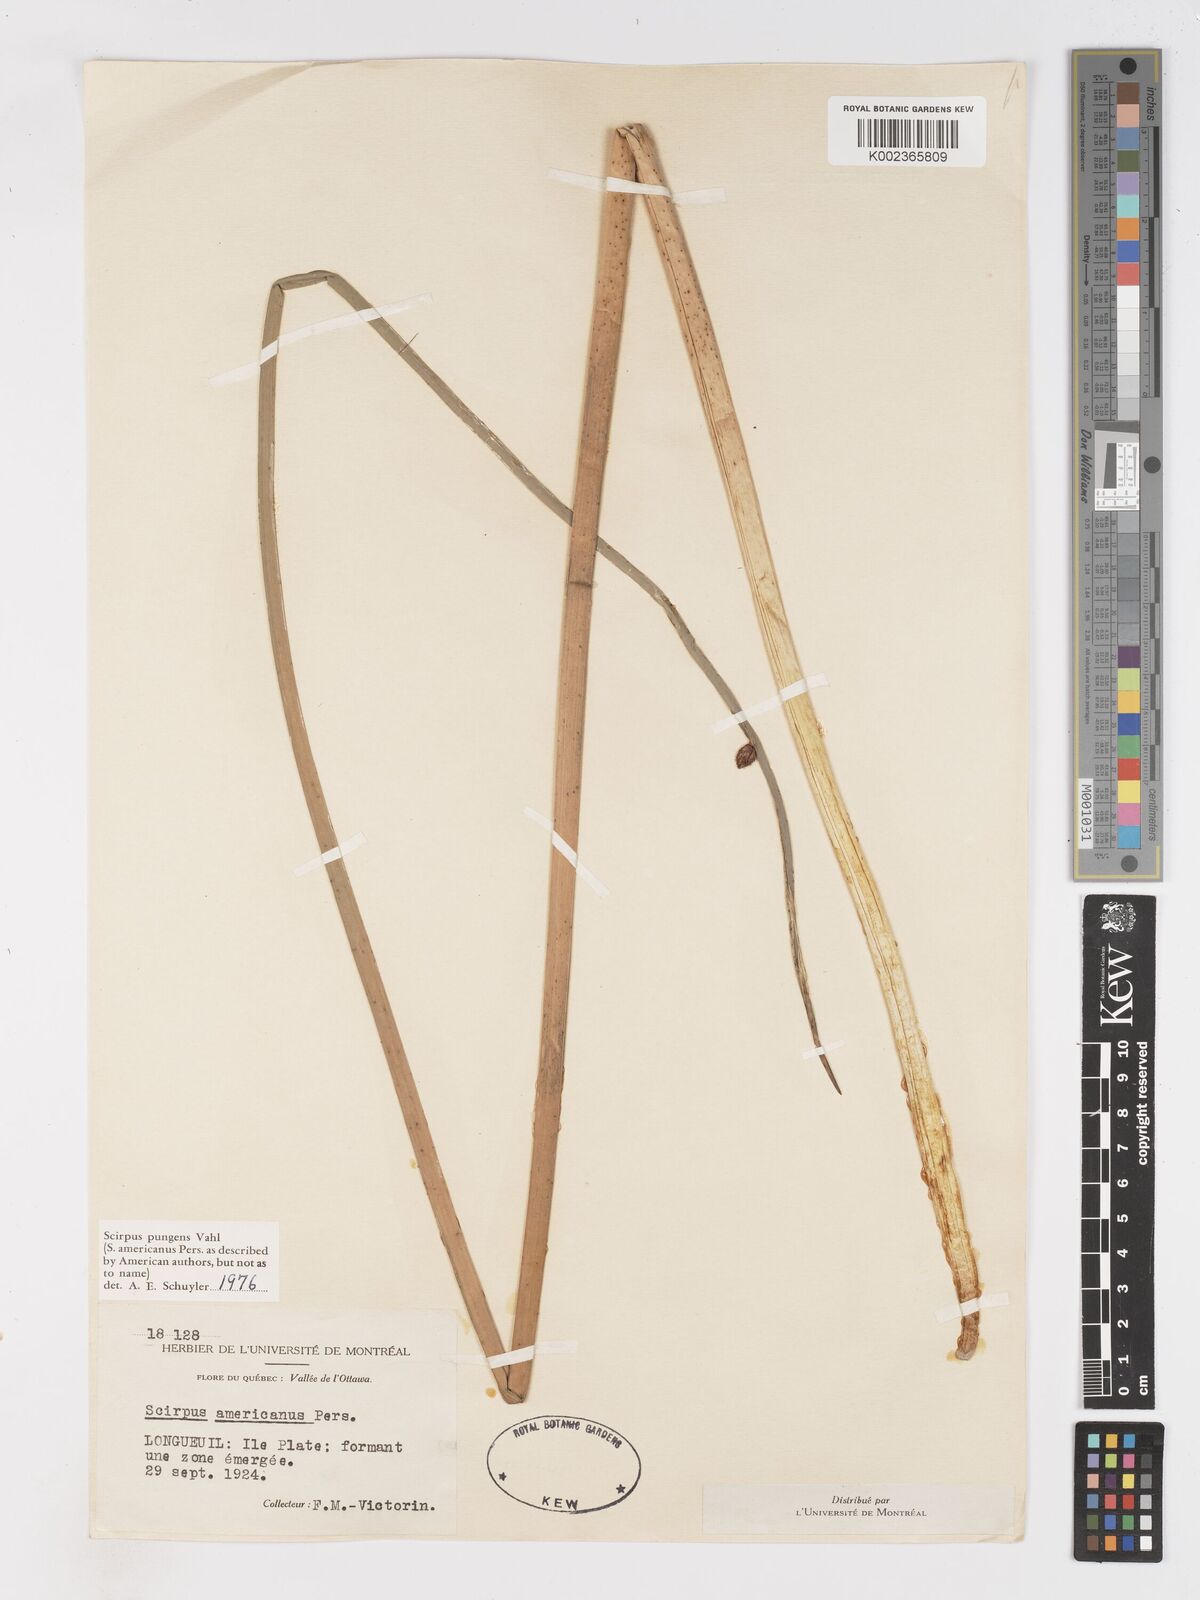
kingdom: Plantae
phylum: Tracheophyta
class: Liliopsida
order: Poales
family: Cyperaceae
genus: Schoenoplectus
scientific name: Schoenoplectus pungens
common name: Sharp club-rush
